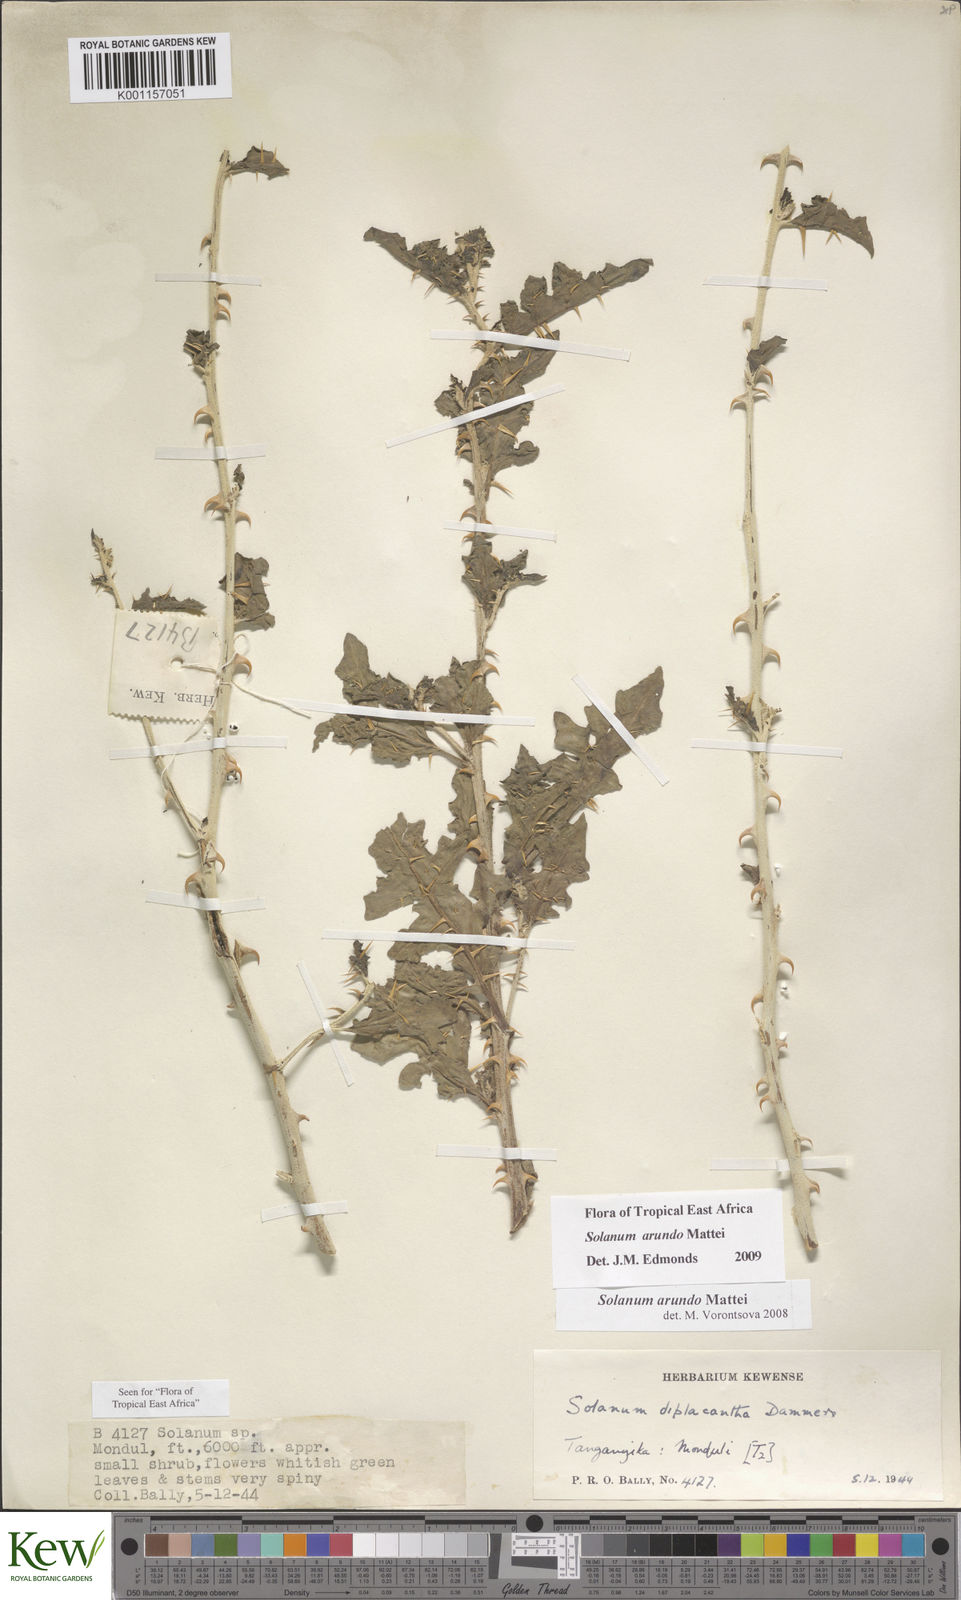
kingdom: Plantae
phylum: Tracheophyta
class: Magnoliopsida
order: Solanales
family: Solanaceae
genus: Solanum
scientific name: Solanum arundo
